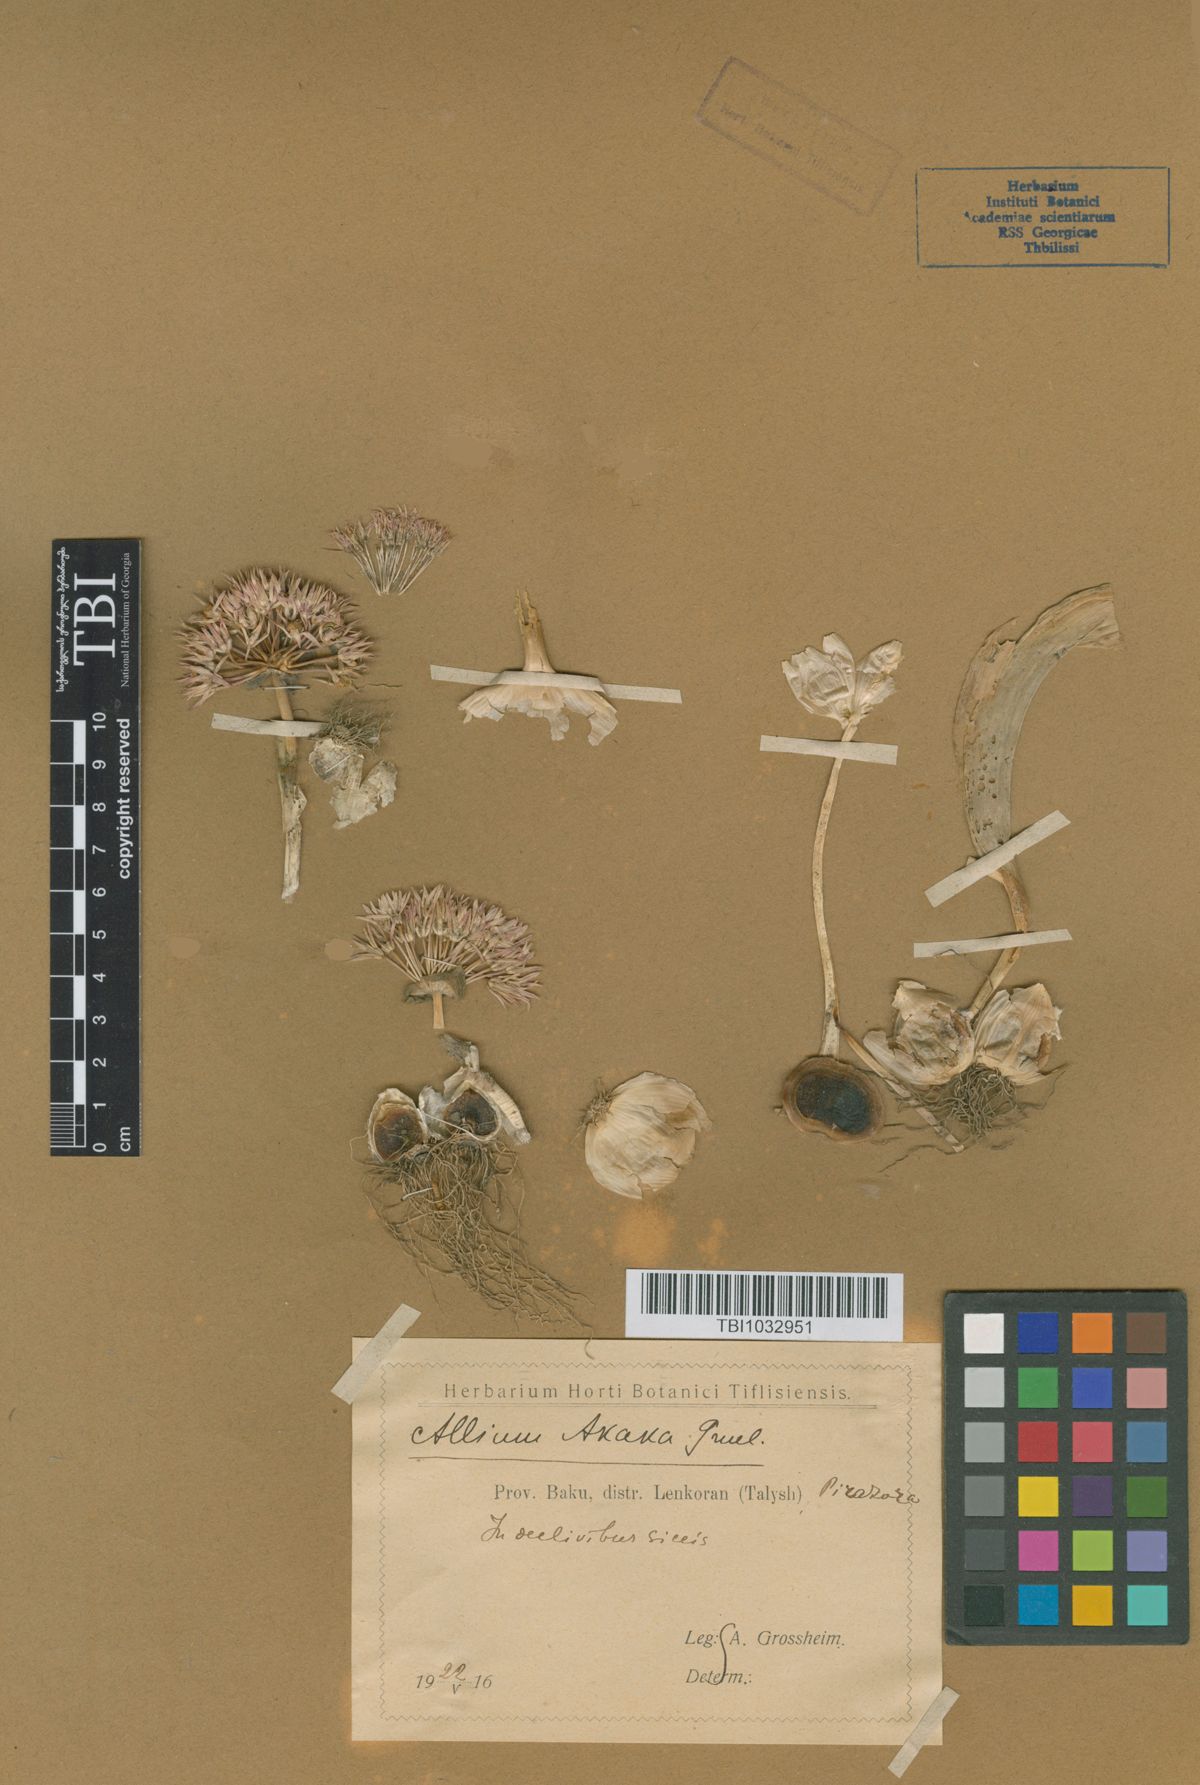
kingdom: Plantae
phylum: Tracheophyta
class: Liliopsida
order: Asparagales
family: Amaryllidaceae
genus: Allium
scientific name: Allium akaka
